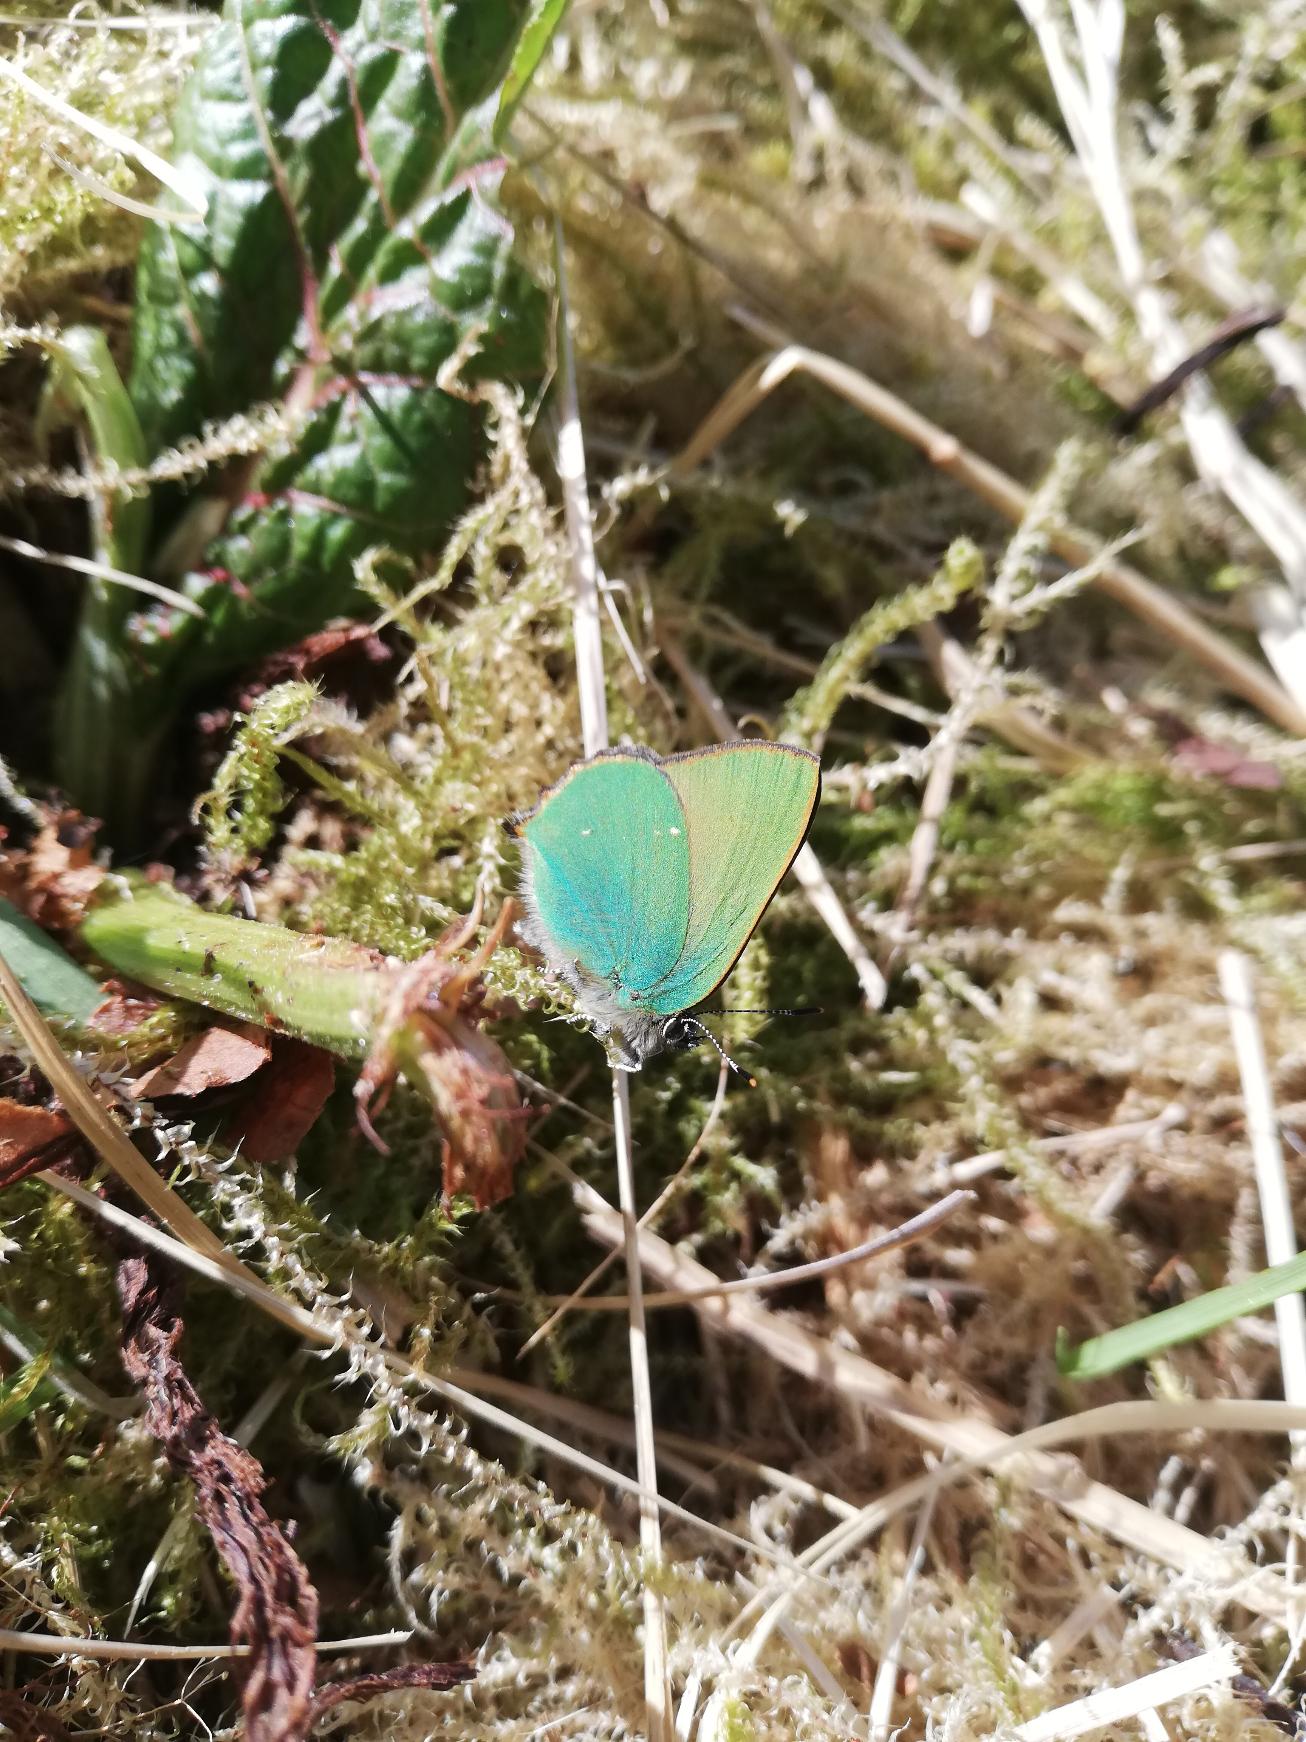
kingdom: Animalia
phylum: Arthropoda
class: Insecta
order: Lepidoptera
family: Lycaenidae
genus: Callophrys
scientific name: Callophrys rubi
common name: Grøn busksommerfugl
